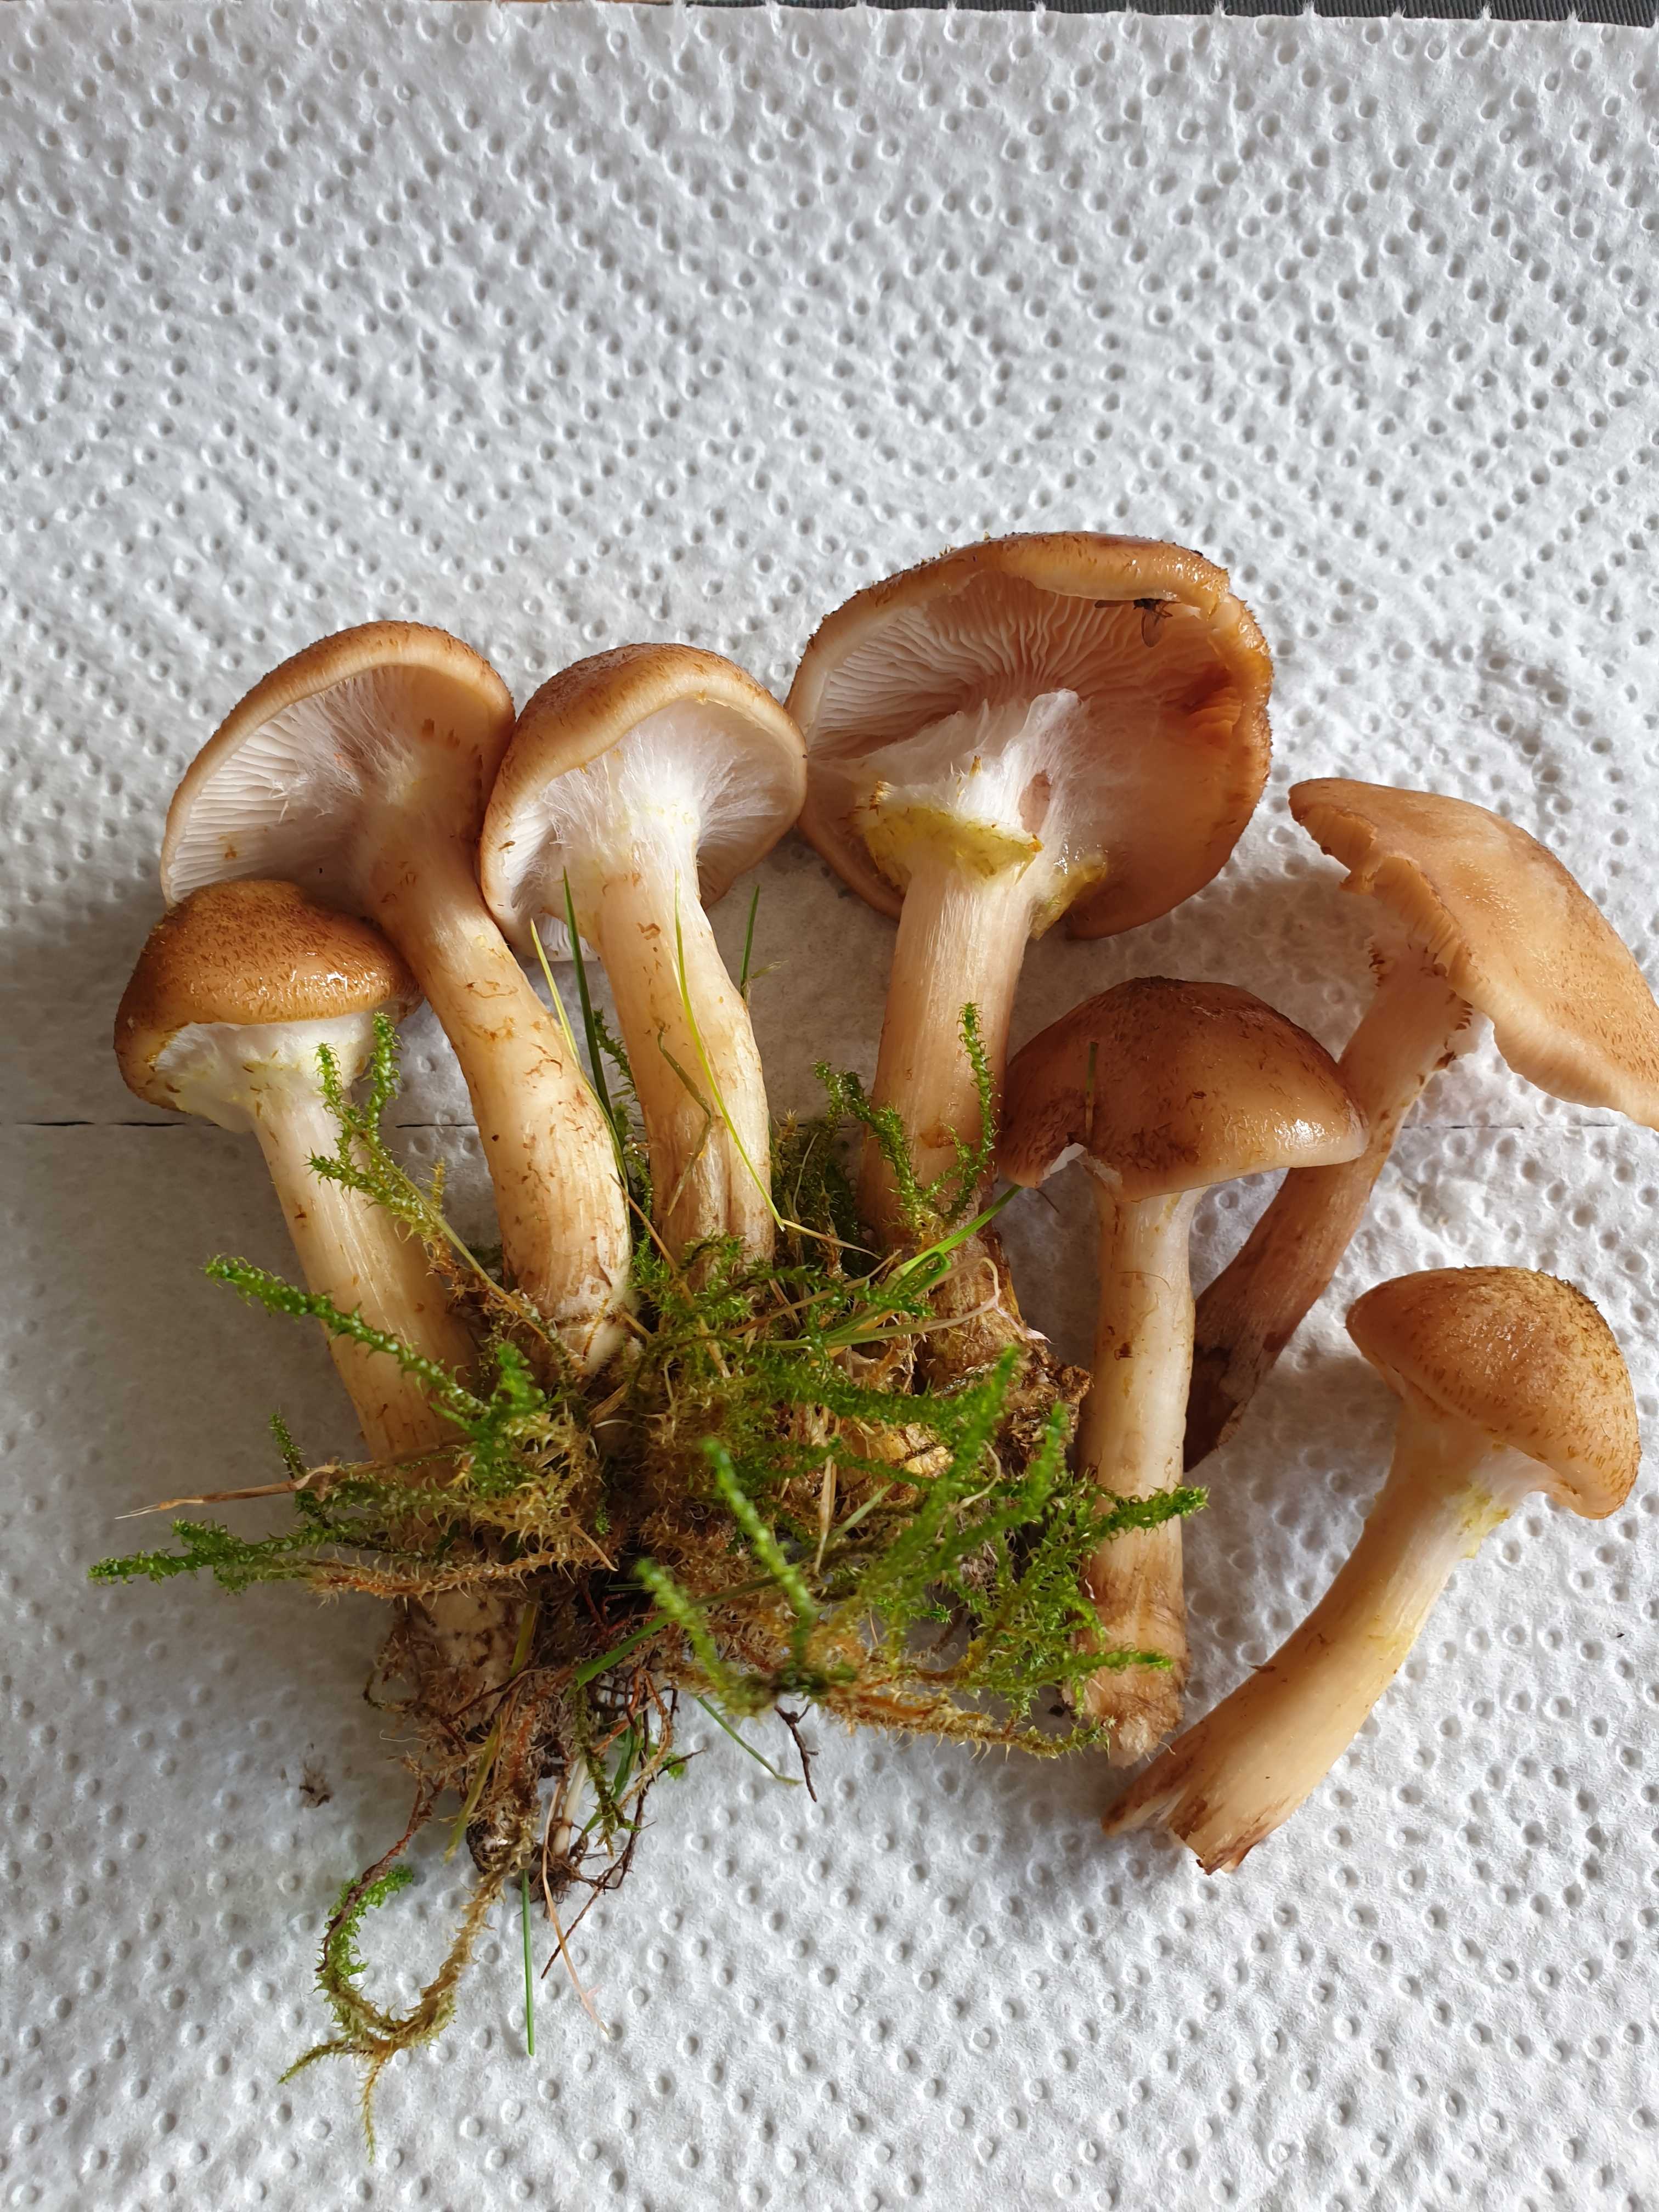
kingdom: Fungi
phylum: Basidiomycota
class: Agaricomycetes
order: Agaricales
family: Physalacriaceae
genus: Armillaria
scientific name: Armillaria lutea
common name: køllestokket honningsvamp
